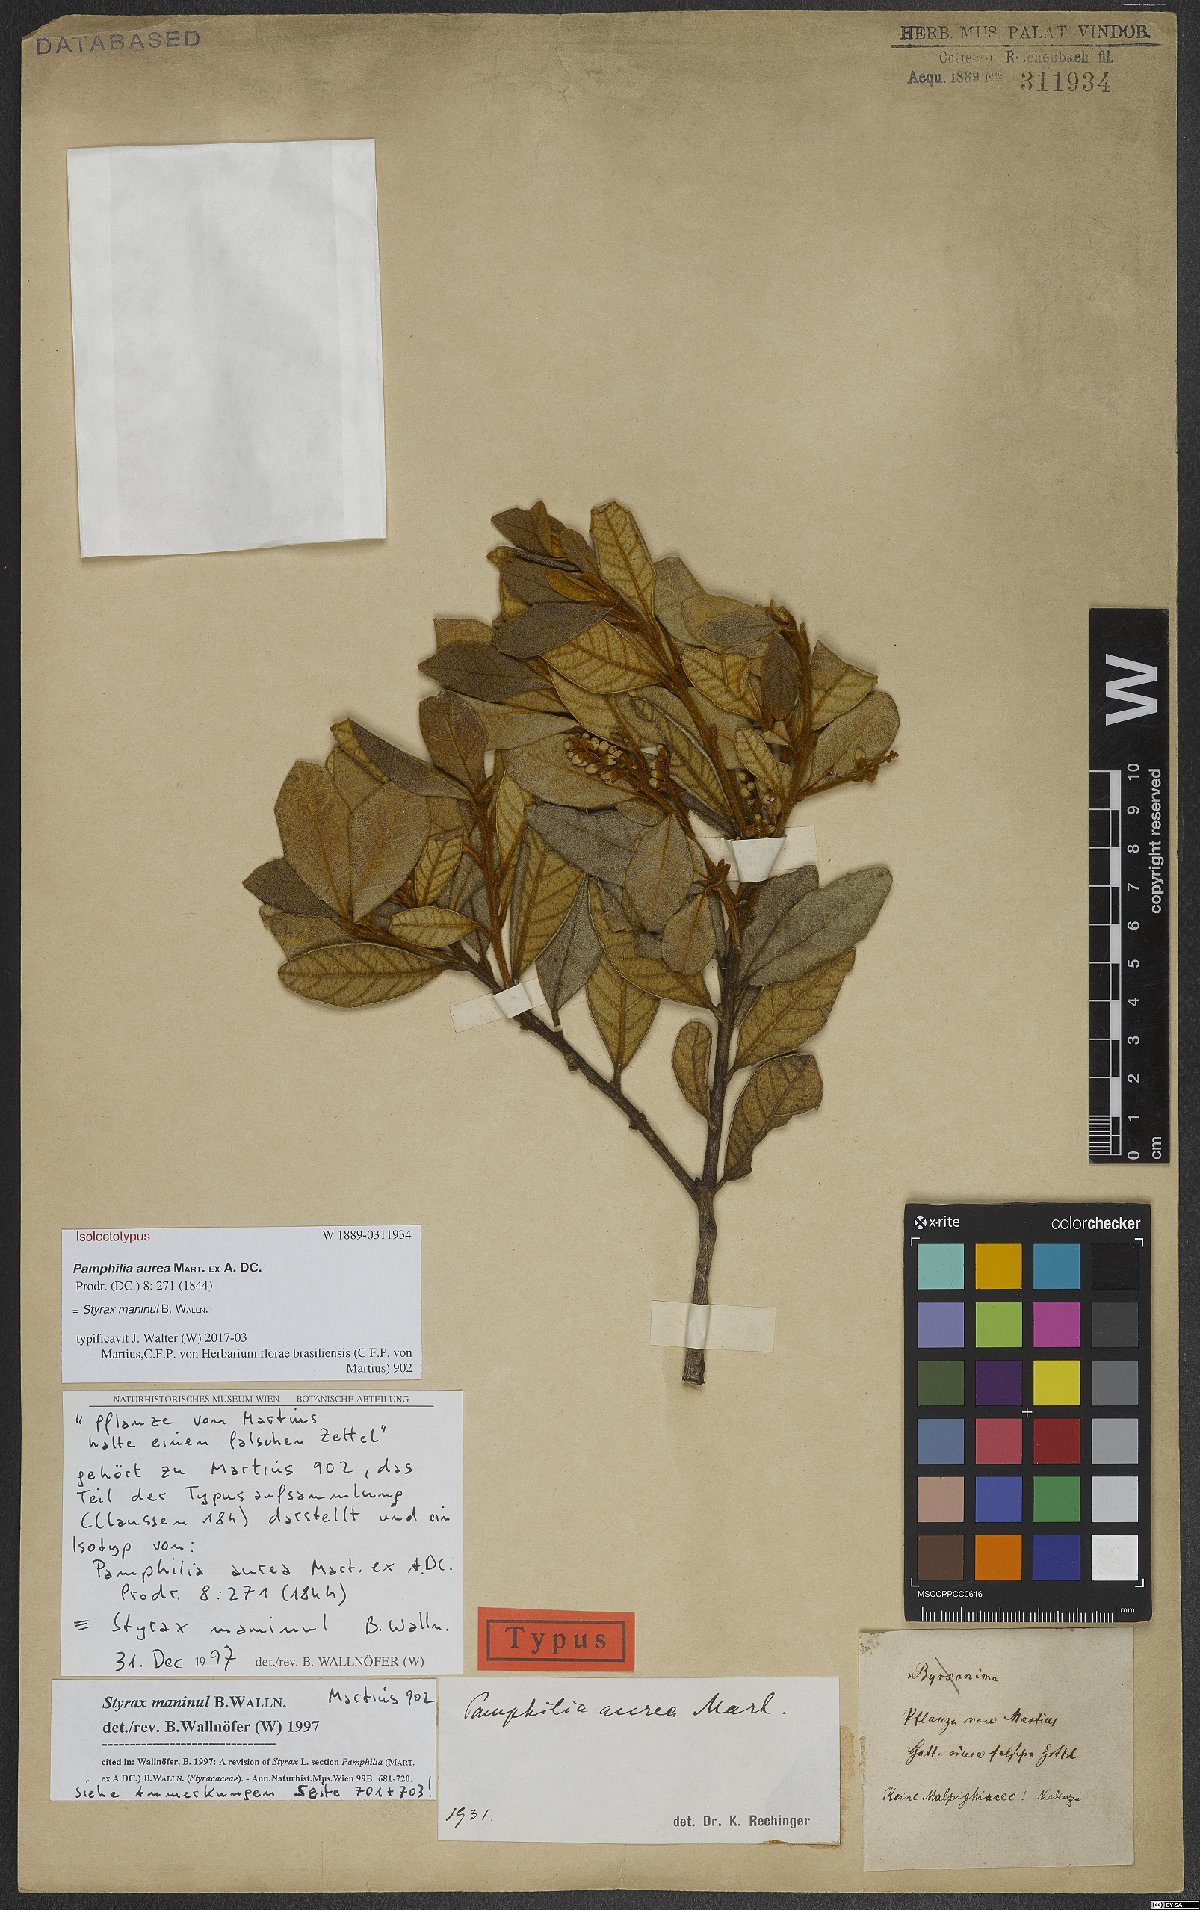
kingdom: Plantae
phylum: Tracheophyta
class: Magnoliopsida
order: Ericales
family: Styracaceae
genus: Styrax
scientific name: Styrax maninul
